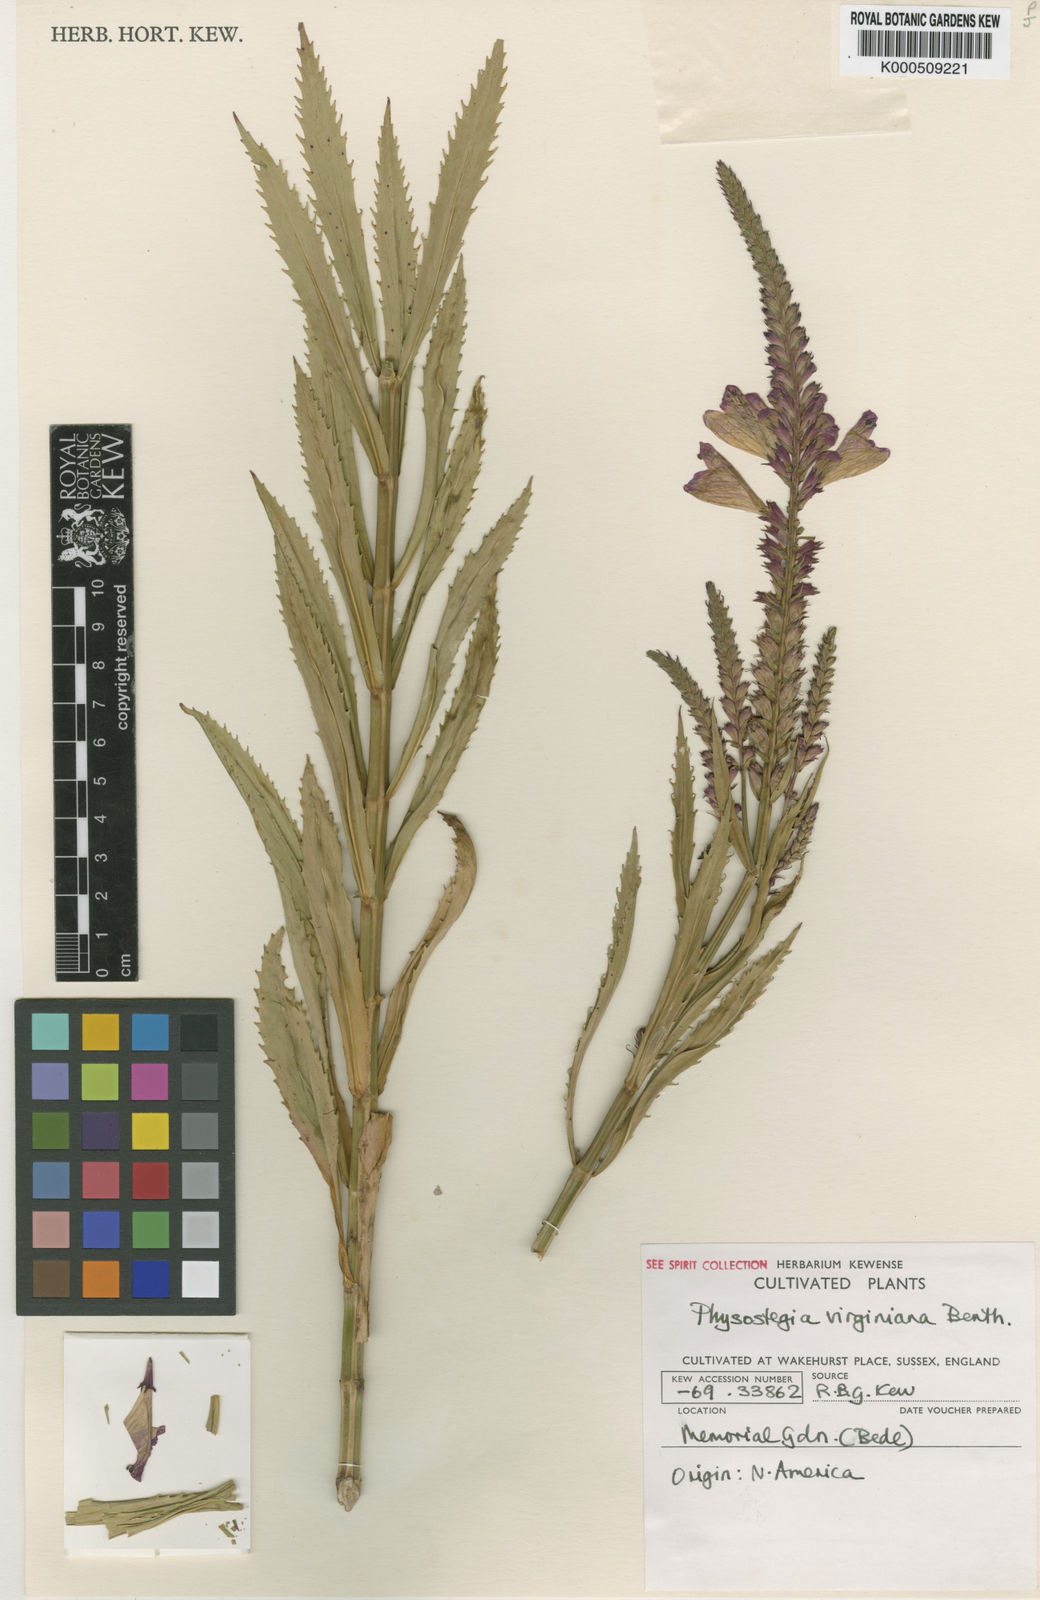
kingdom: Plantae
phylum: Tracheophyta
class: Magnoliopsida
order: Lamiales
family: Lamiaceae
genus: Physostegia
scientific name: Physostegia virginiana
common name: Obedient-plant
